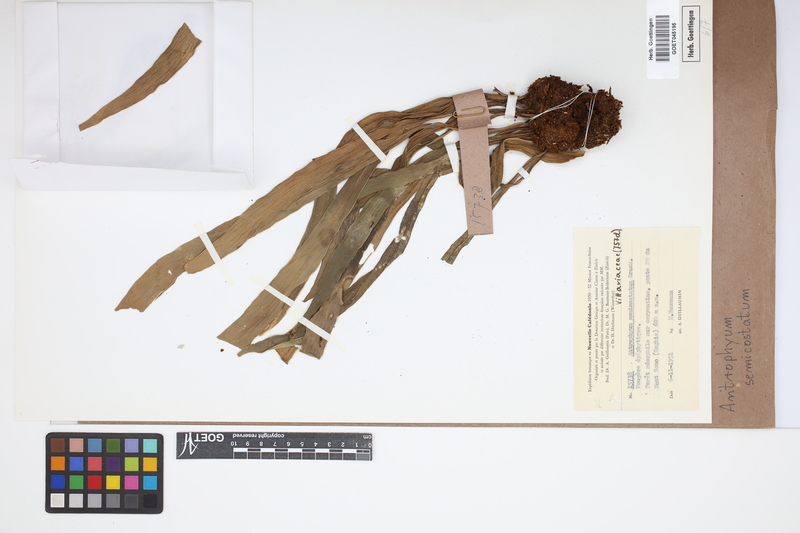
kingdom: Plantae
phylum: Tracheophyta
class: Polypodiopsida
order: Polypodiales
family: Pteridaceae
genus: Antrophyum
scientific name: Antrophyum semicostatum
